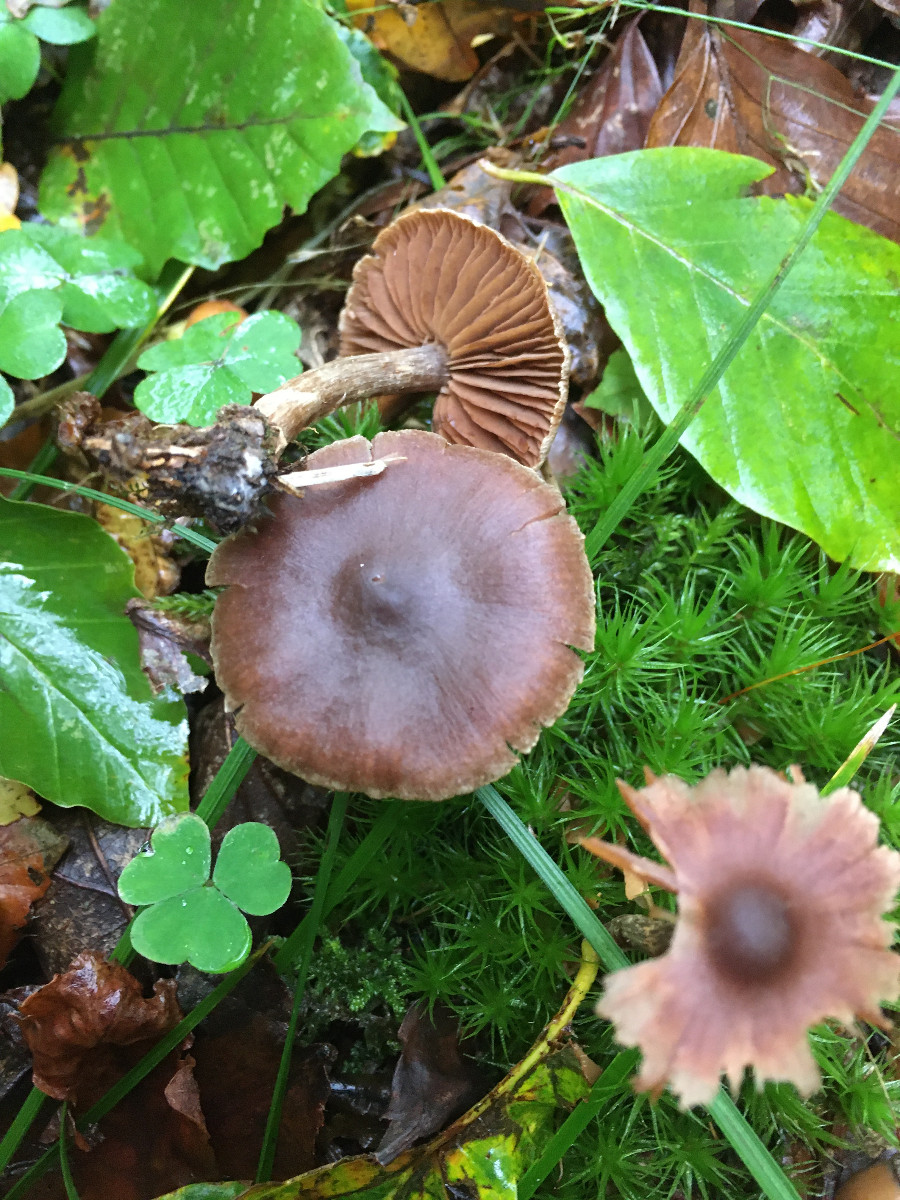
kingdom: Fungi
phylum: Basidiomycota
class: Agaricomycetes
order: Agaricales
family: Cortinariaceae
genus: Cortinarius
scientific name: Cortinarius
